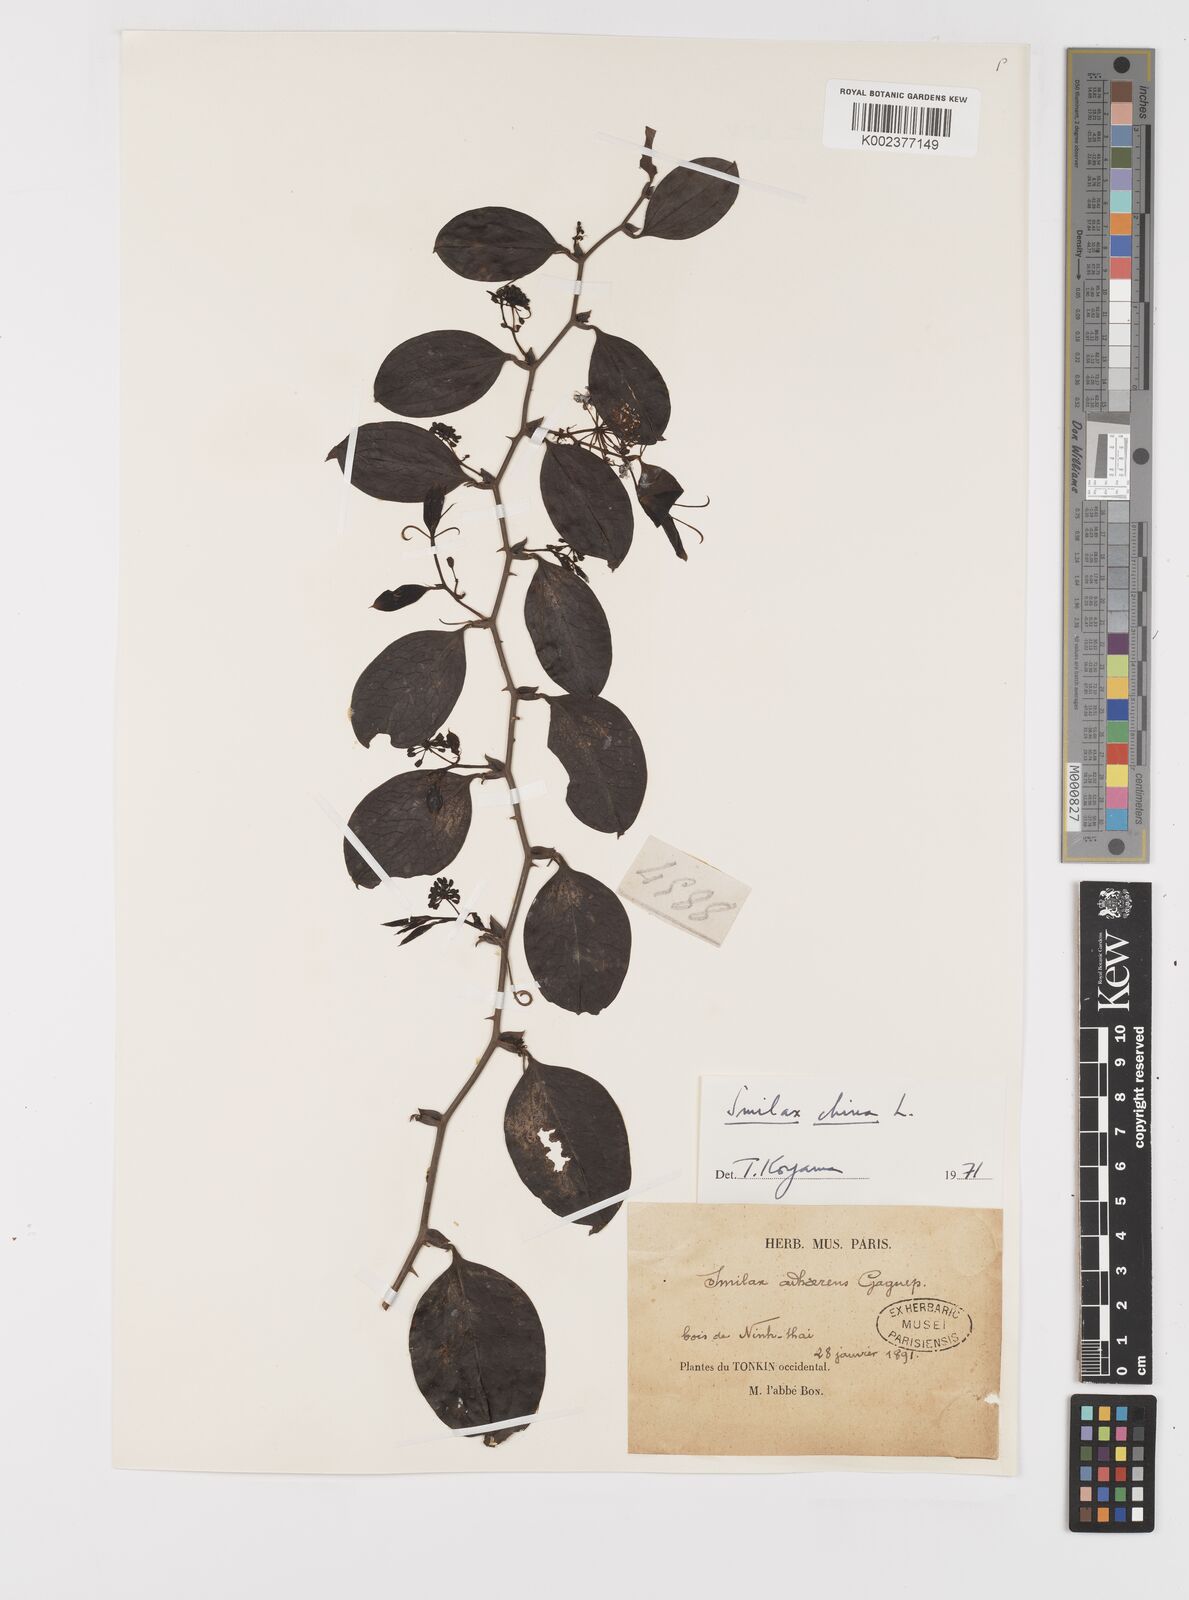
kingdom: Plantae
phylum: Tracheophyta
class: Liliopsida
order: Liliales
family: Smilacaceae
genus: Smilax
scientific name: Smilax china
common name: Chinaroot
